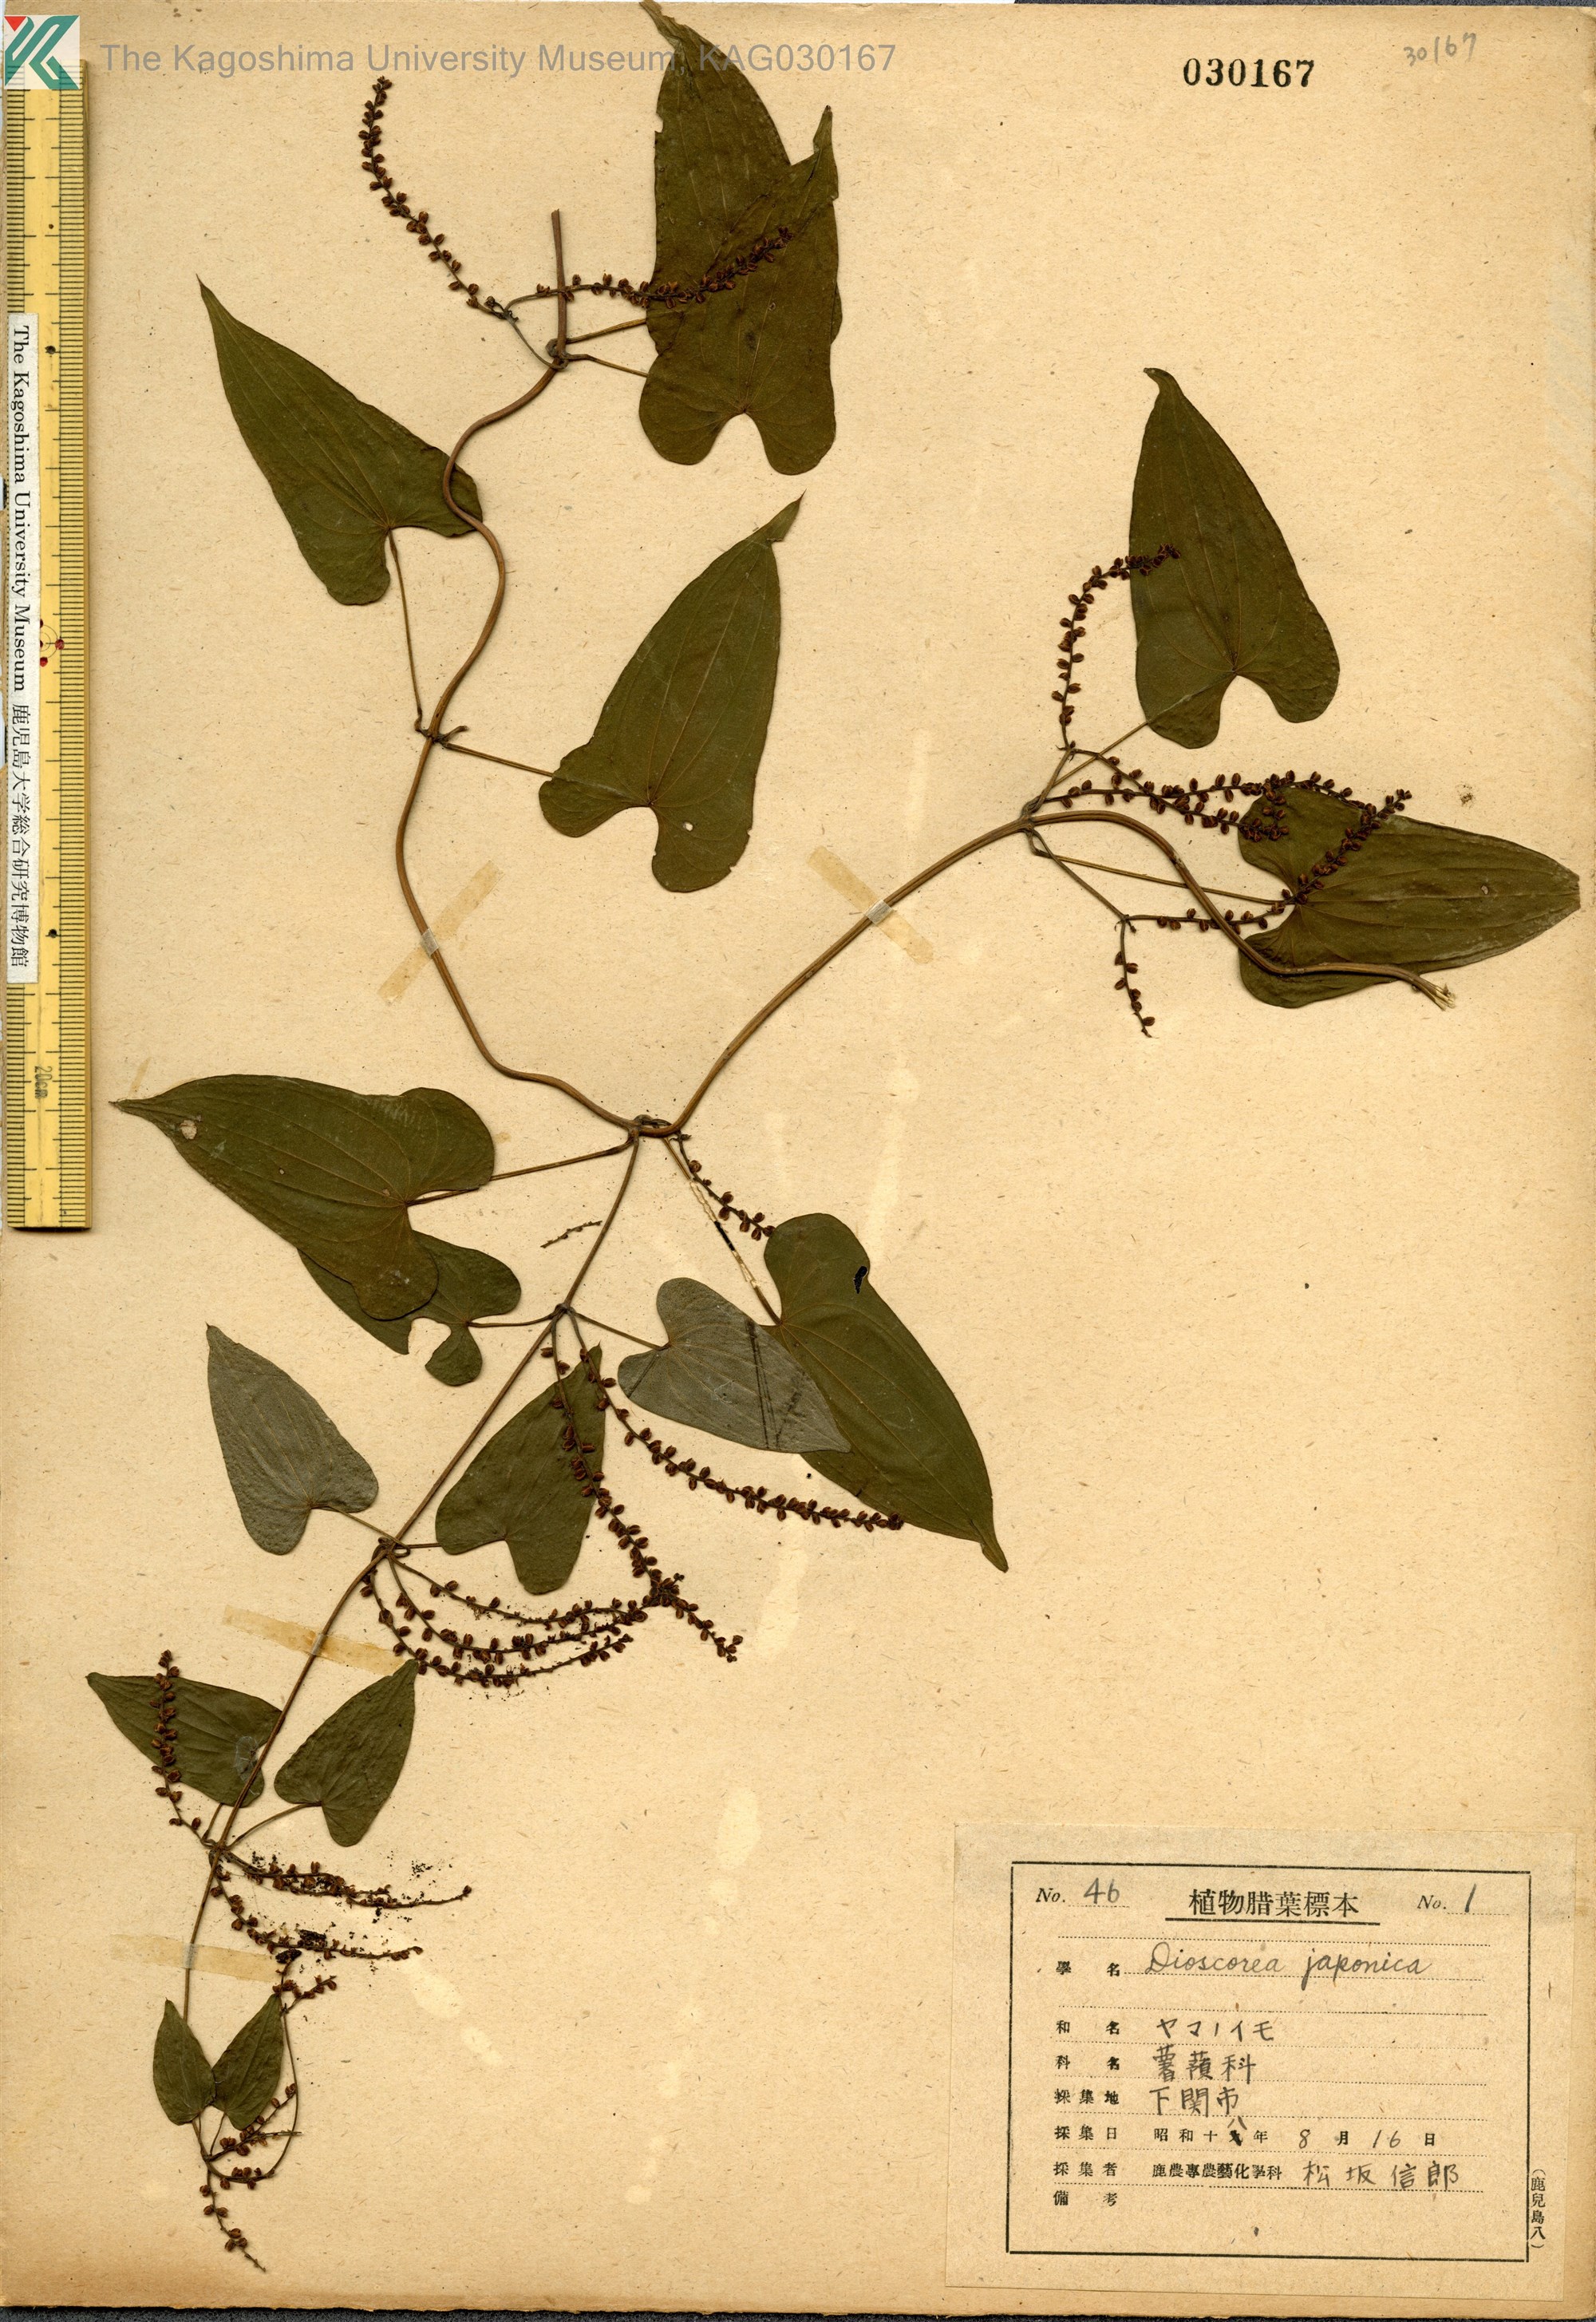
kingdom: Plantae
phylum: Tracheophyta
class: Liliopsida
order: Dioscoreales
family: Dioscoreaceae
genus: Dioscorea
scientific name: Dioscorea japonica
